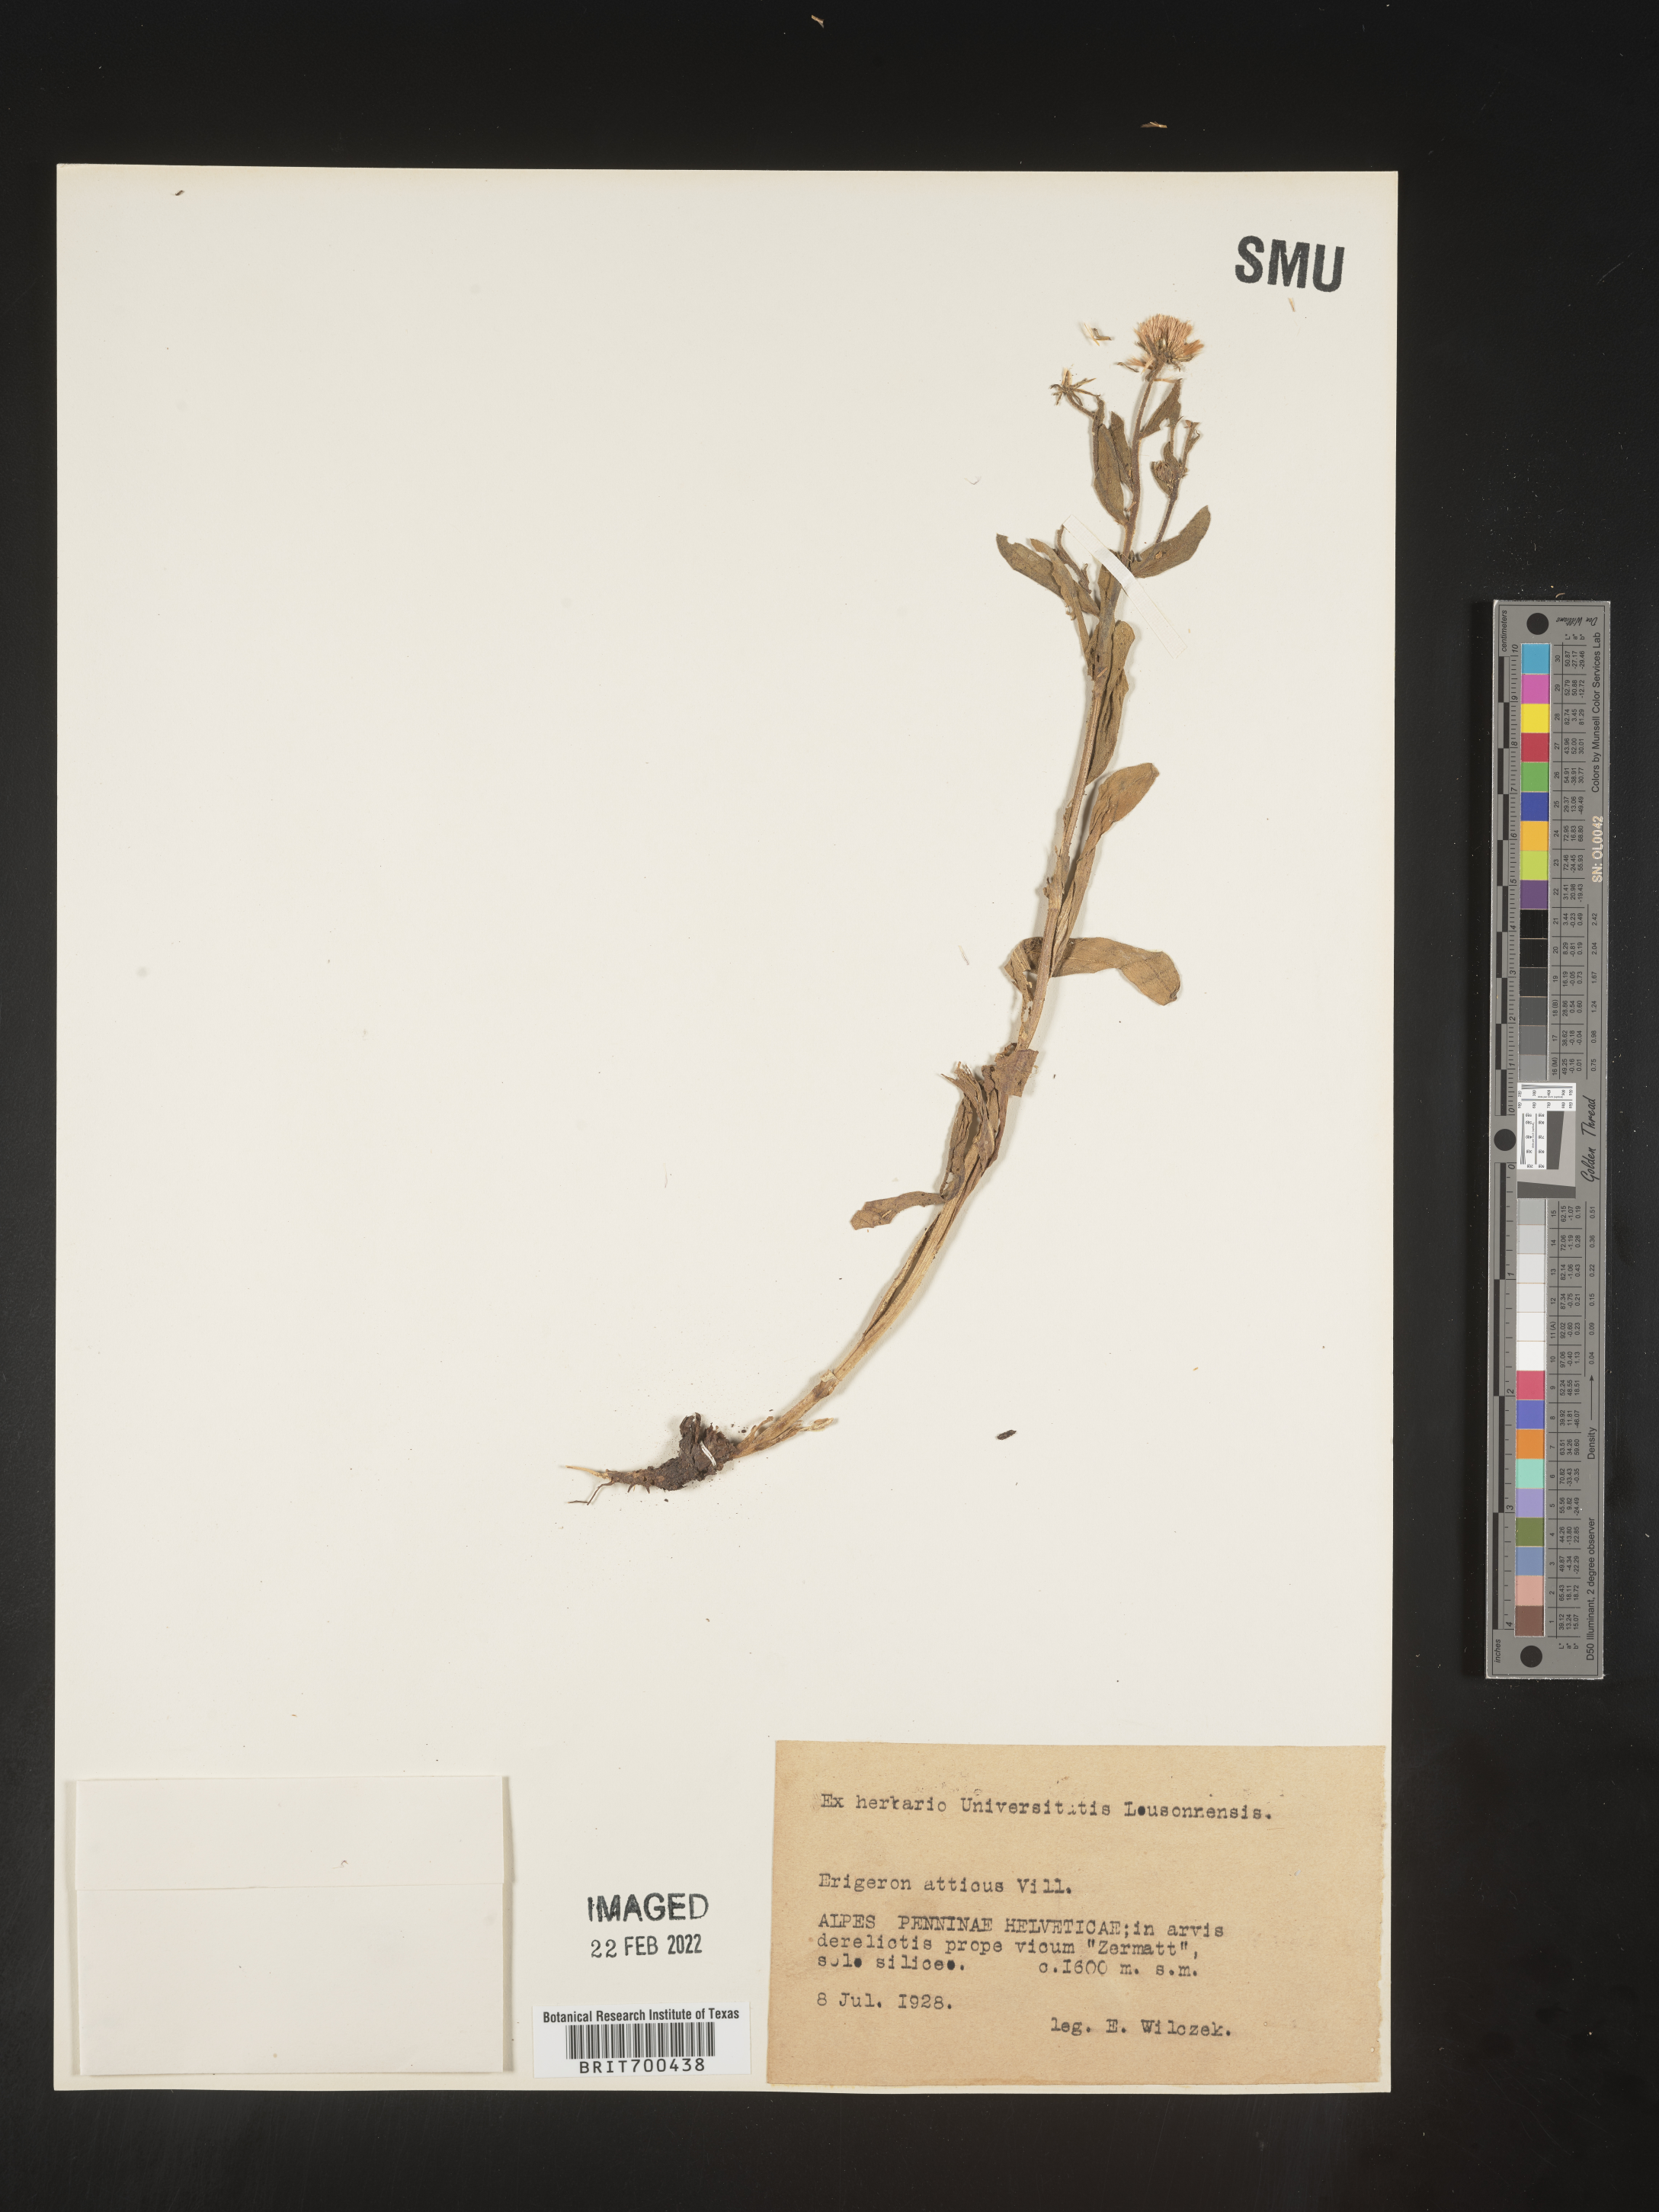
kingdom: Plantae
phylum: Tracheophyta
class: Magnoliopsida
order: Asterales
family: Asteraceae
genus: Erigeron
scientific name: Erigeron
